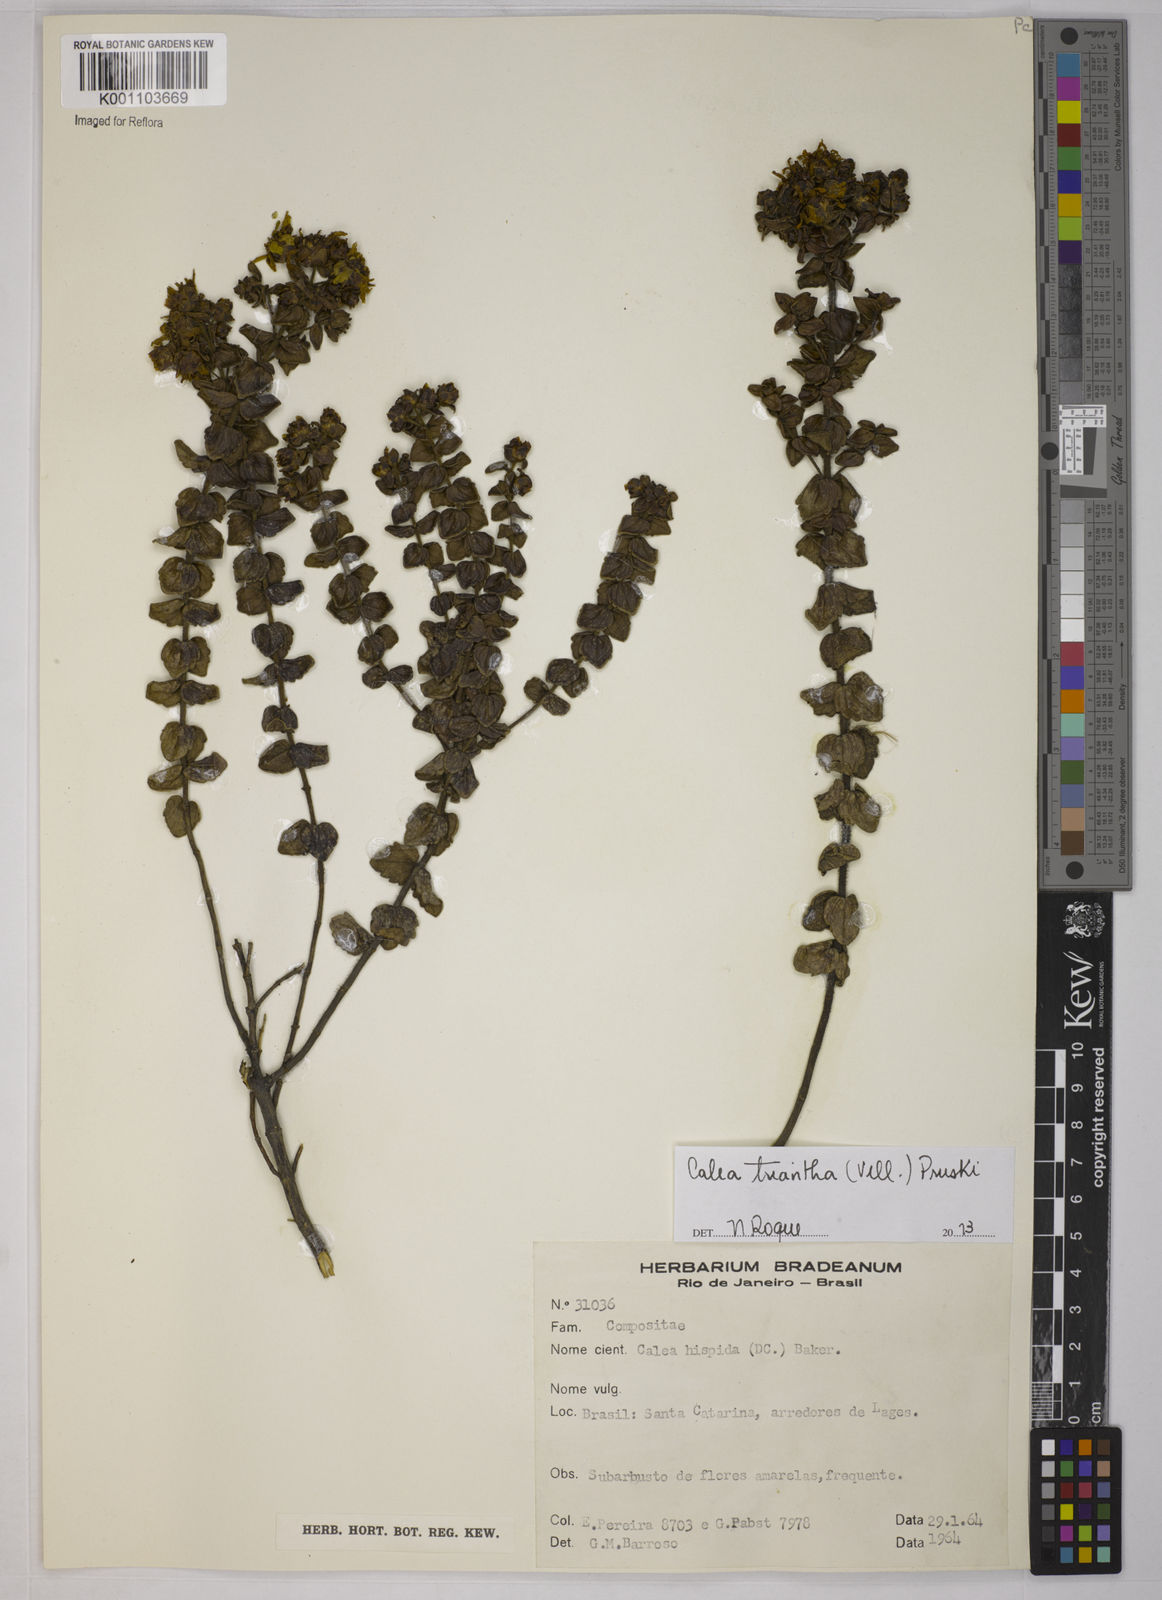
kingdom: Plantae
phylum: Tracheophyta
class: Magnoliopsida
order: Asterales
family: Asteraceae
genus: Calea
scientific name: Calea triantha
